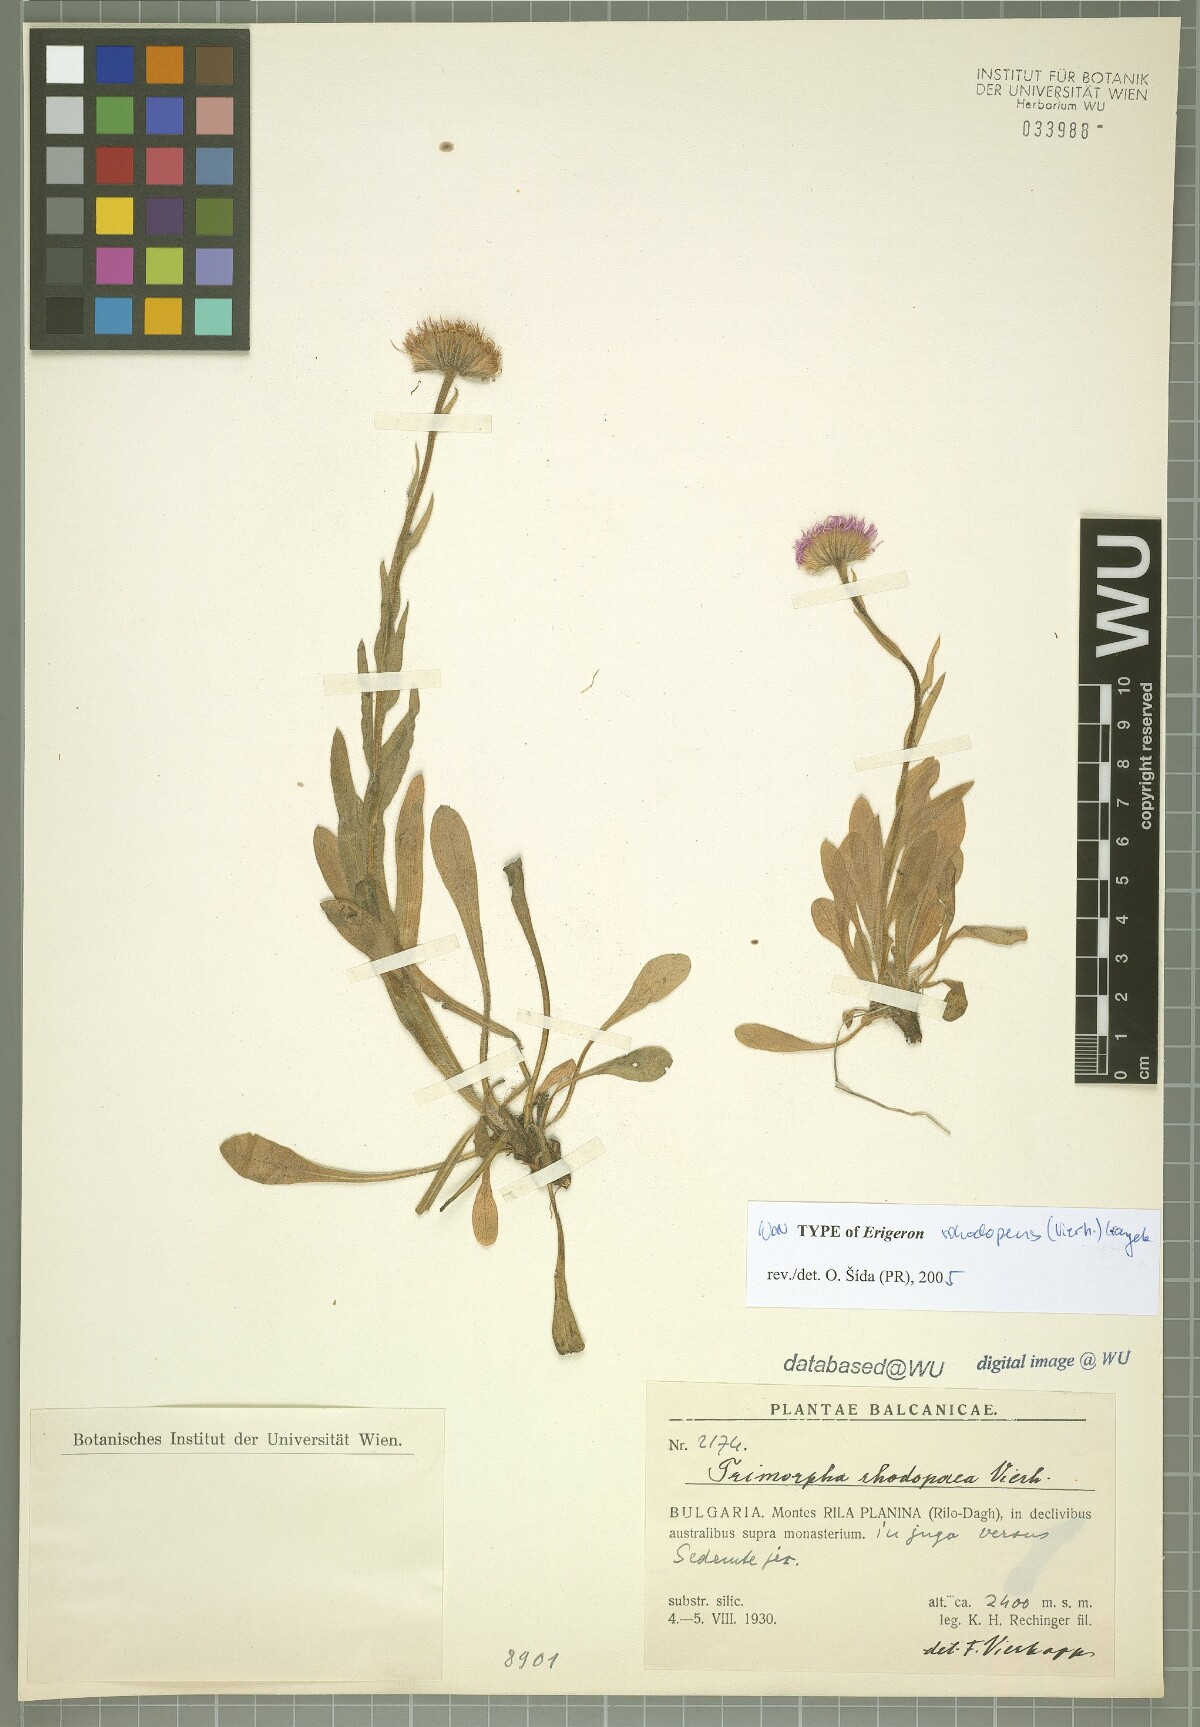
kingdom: Plantae
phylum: Tracheophyta
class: Magnoliopsida
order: Asterales
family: Asteraceae
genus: Erigeron
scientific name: Erigeron alpinus
